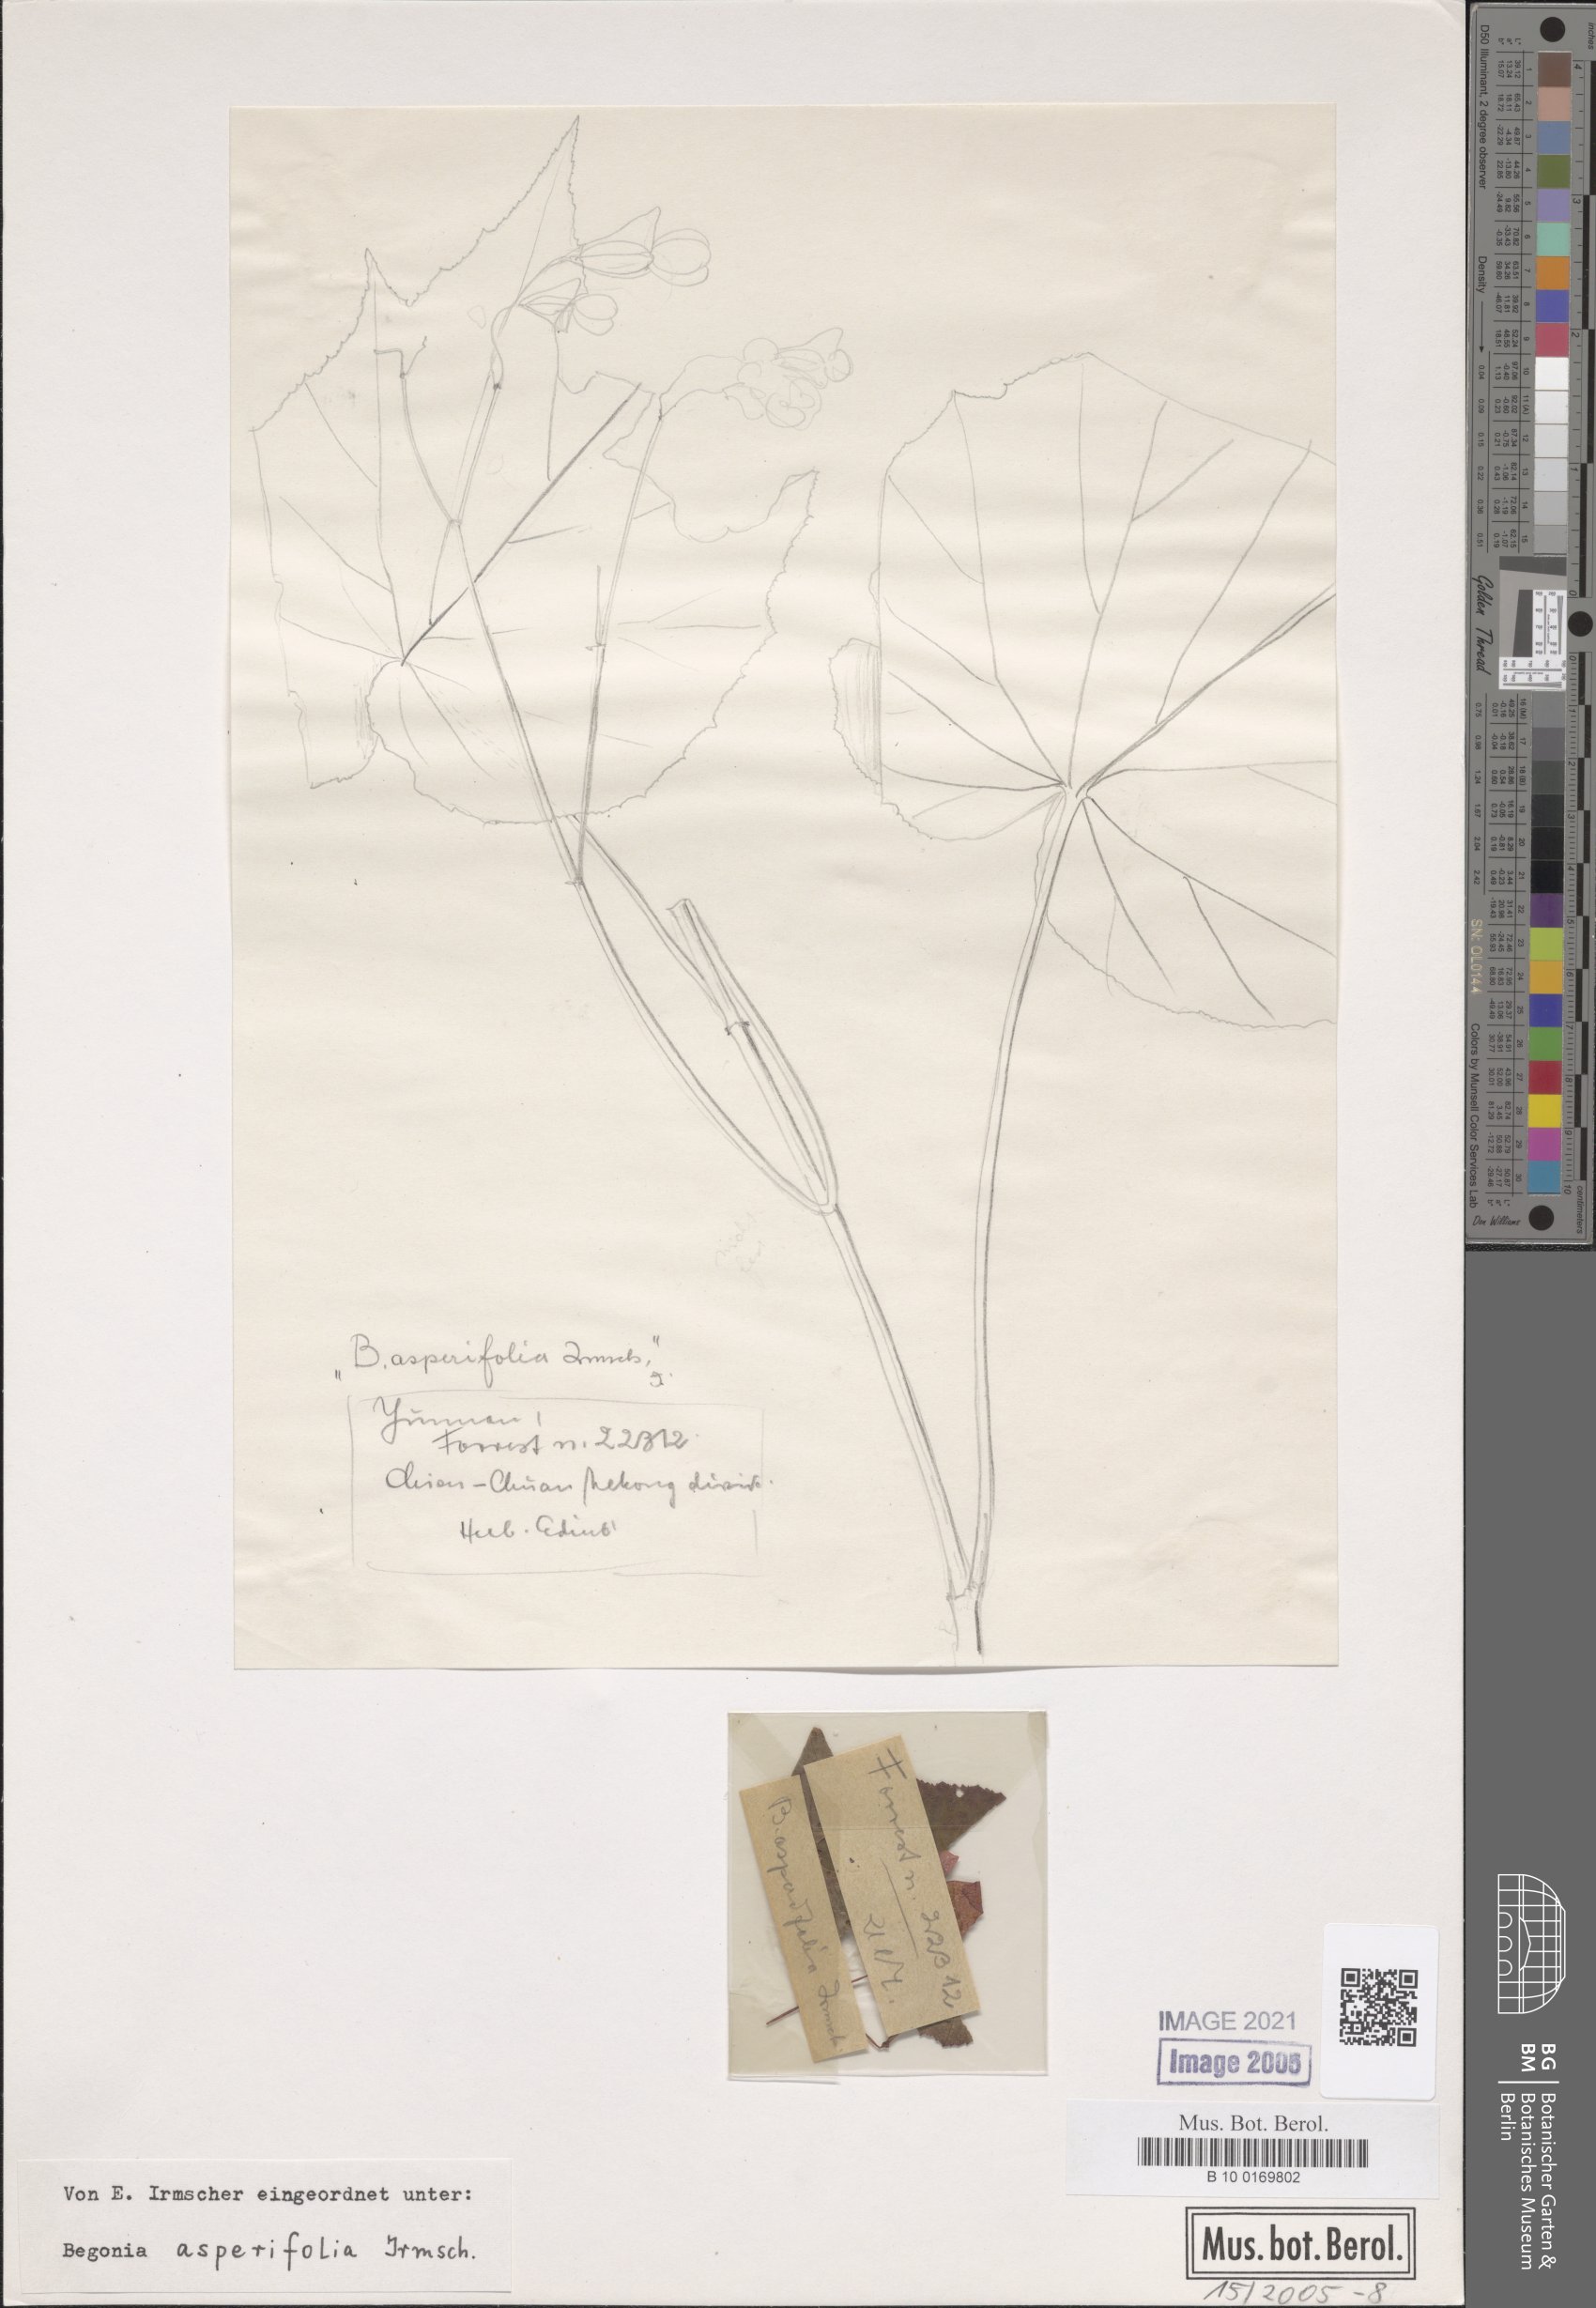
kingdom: Plantae
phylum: Tracheophyta
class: Magnoliopsida
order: Cucurbitales
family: Begoniaceae
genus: Begonia
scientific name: Begonia asperifolia
